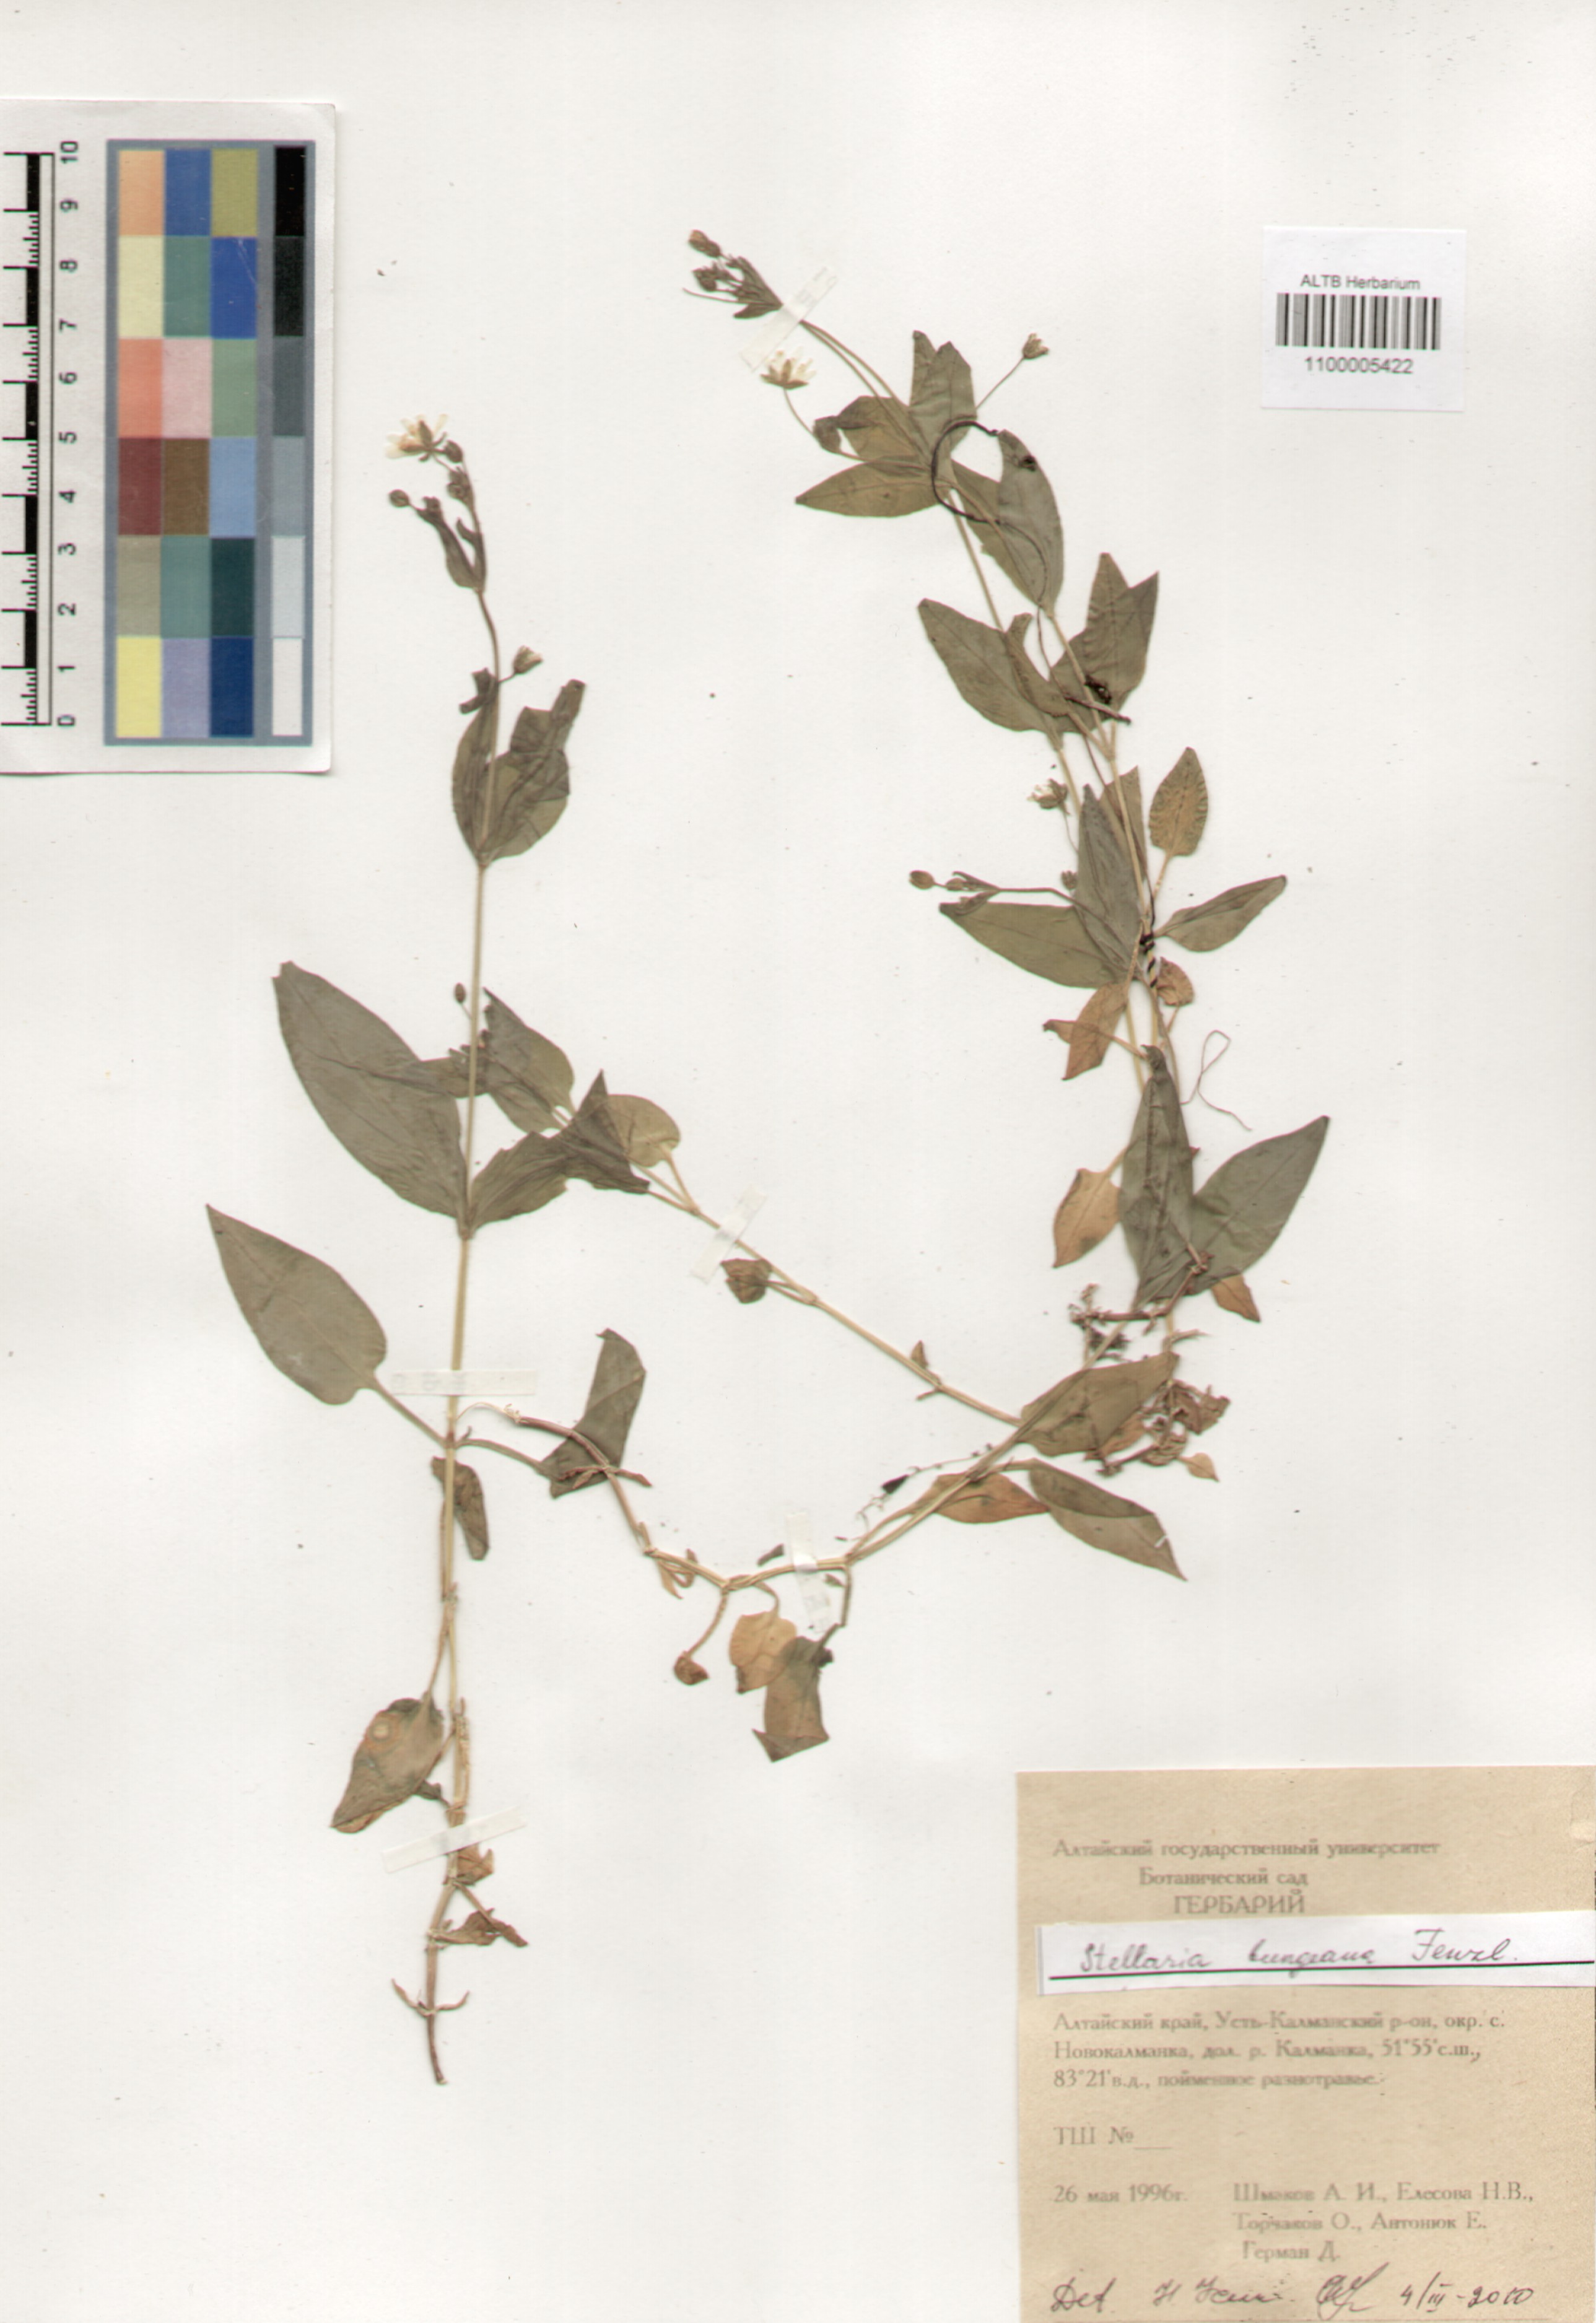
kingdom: Plantae
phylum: Tracheophyta
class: Magnoliopsida
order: Caryophyllales
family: Caryophyllaceae
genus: Stellaria
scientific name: Stellaria bungeana
